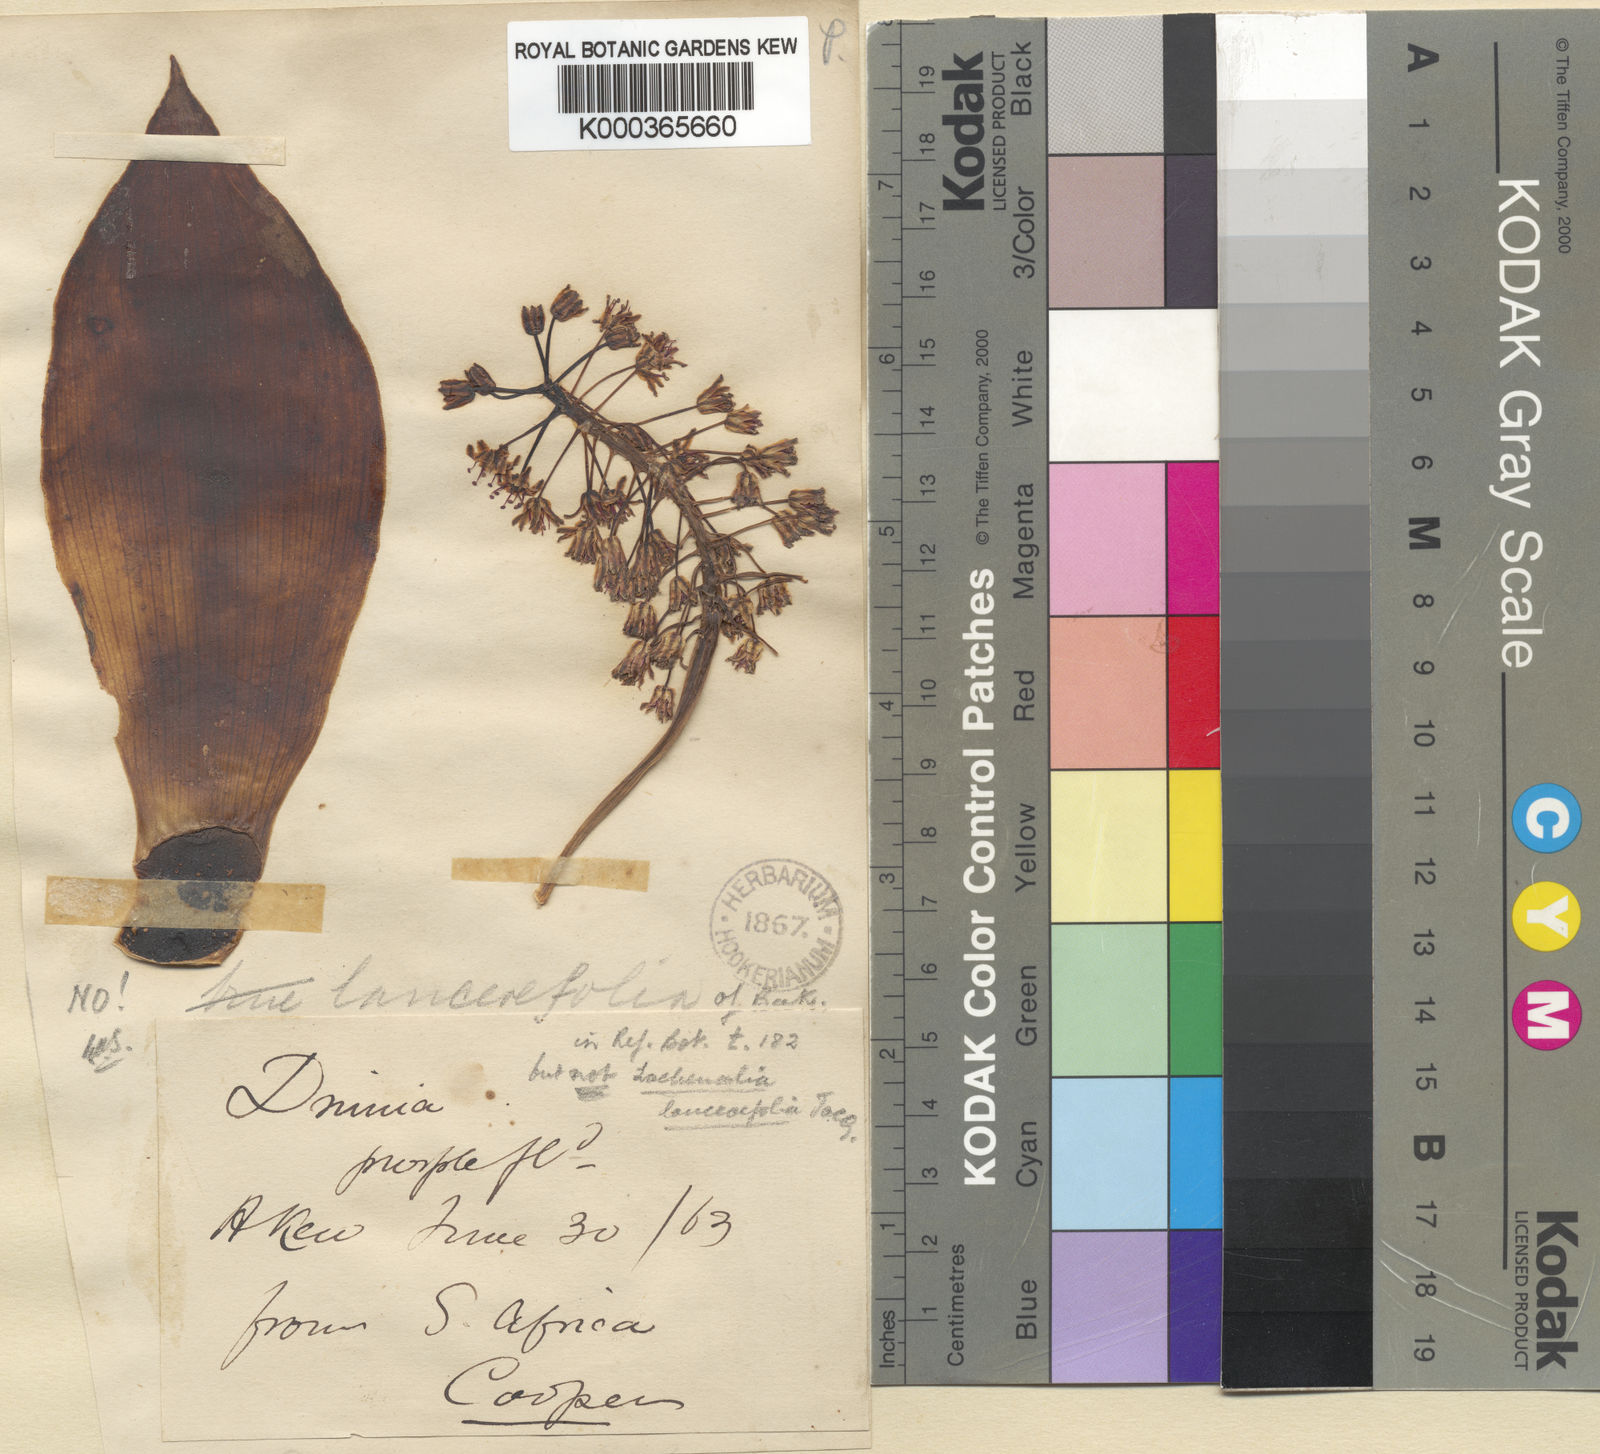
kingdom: Plantae
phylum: Tracheophyta
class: Liliopsida
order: Asparagales
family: Asparagaceae
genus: Ledebouria
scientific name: Ledebouria ovatifolia
